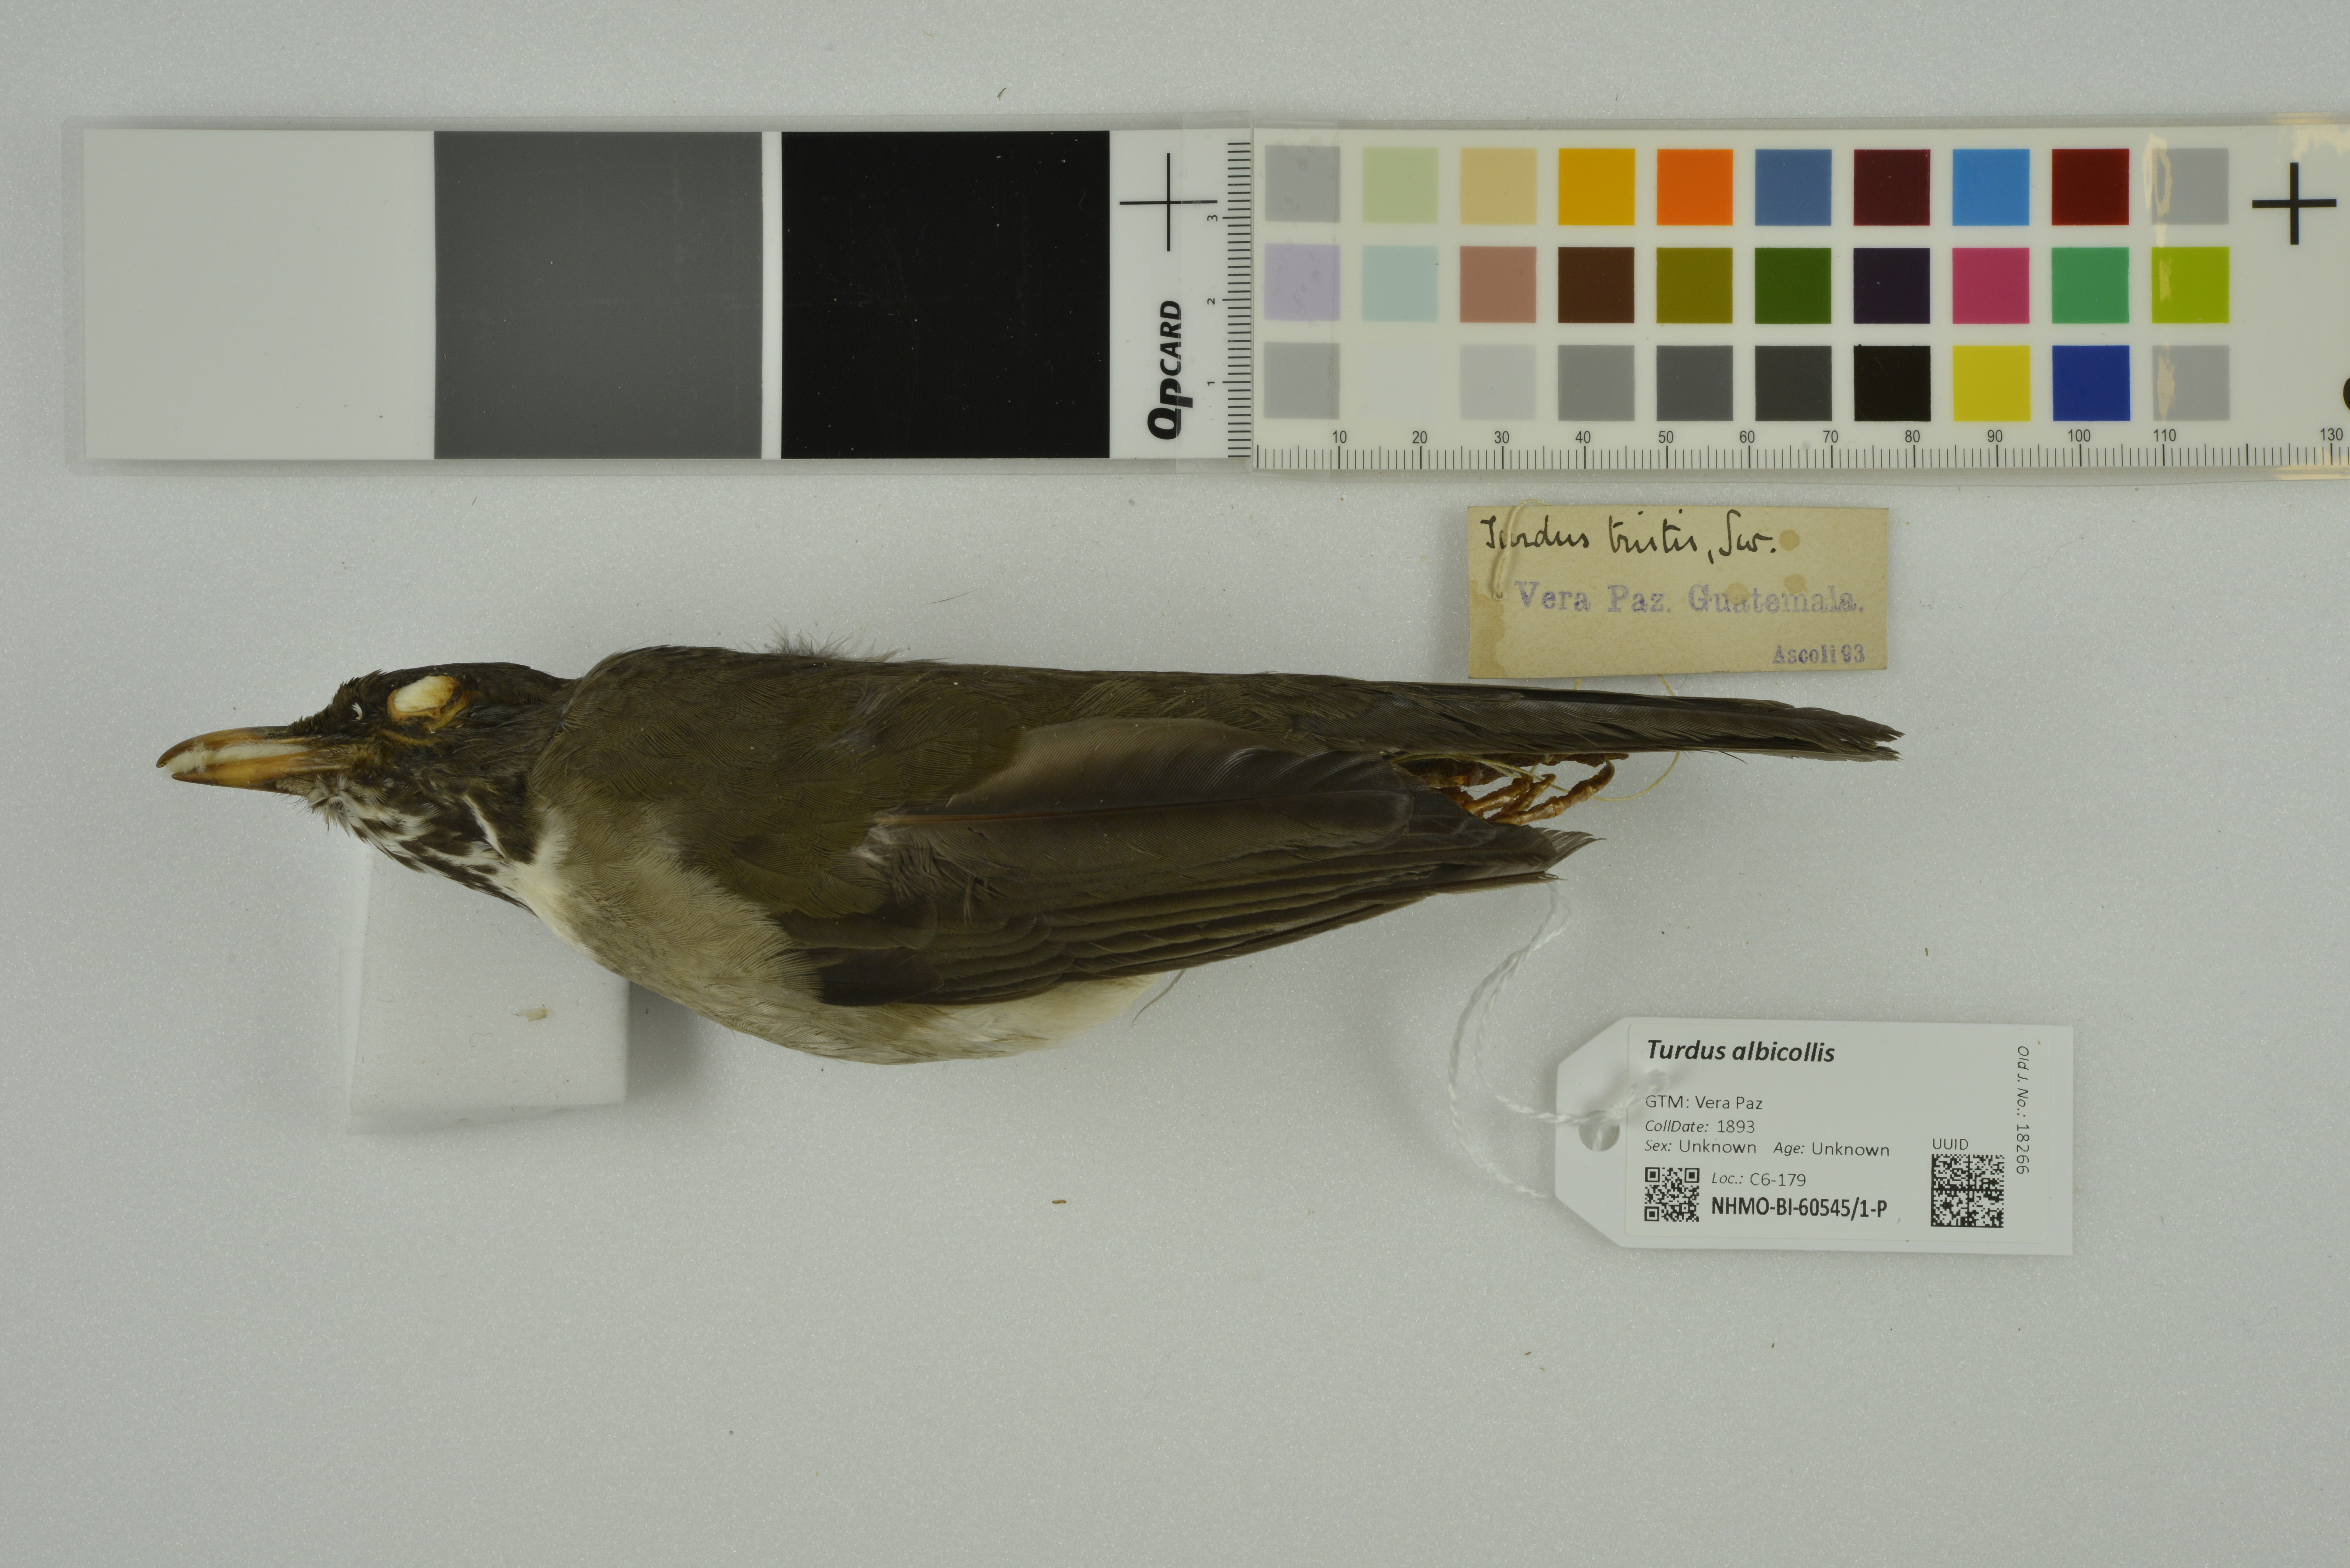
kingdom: Animalia
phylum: Chordata
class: Aves
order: Passeriformes
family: Turdidae
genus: Turdus
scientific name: Turdus albicollis
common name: White-necked thrush
